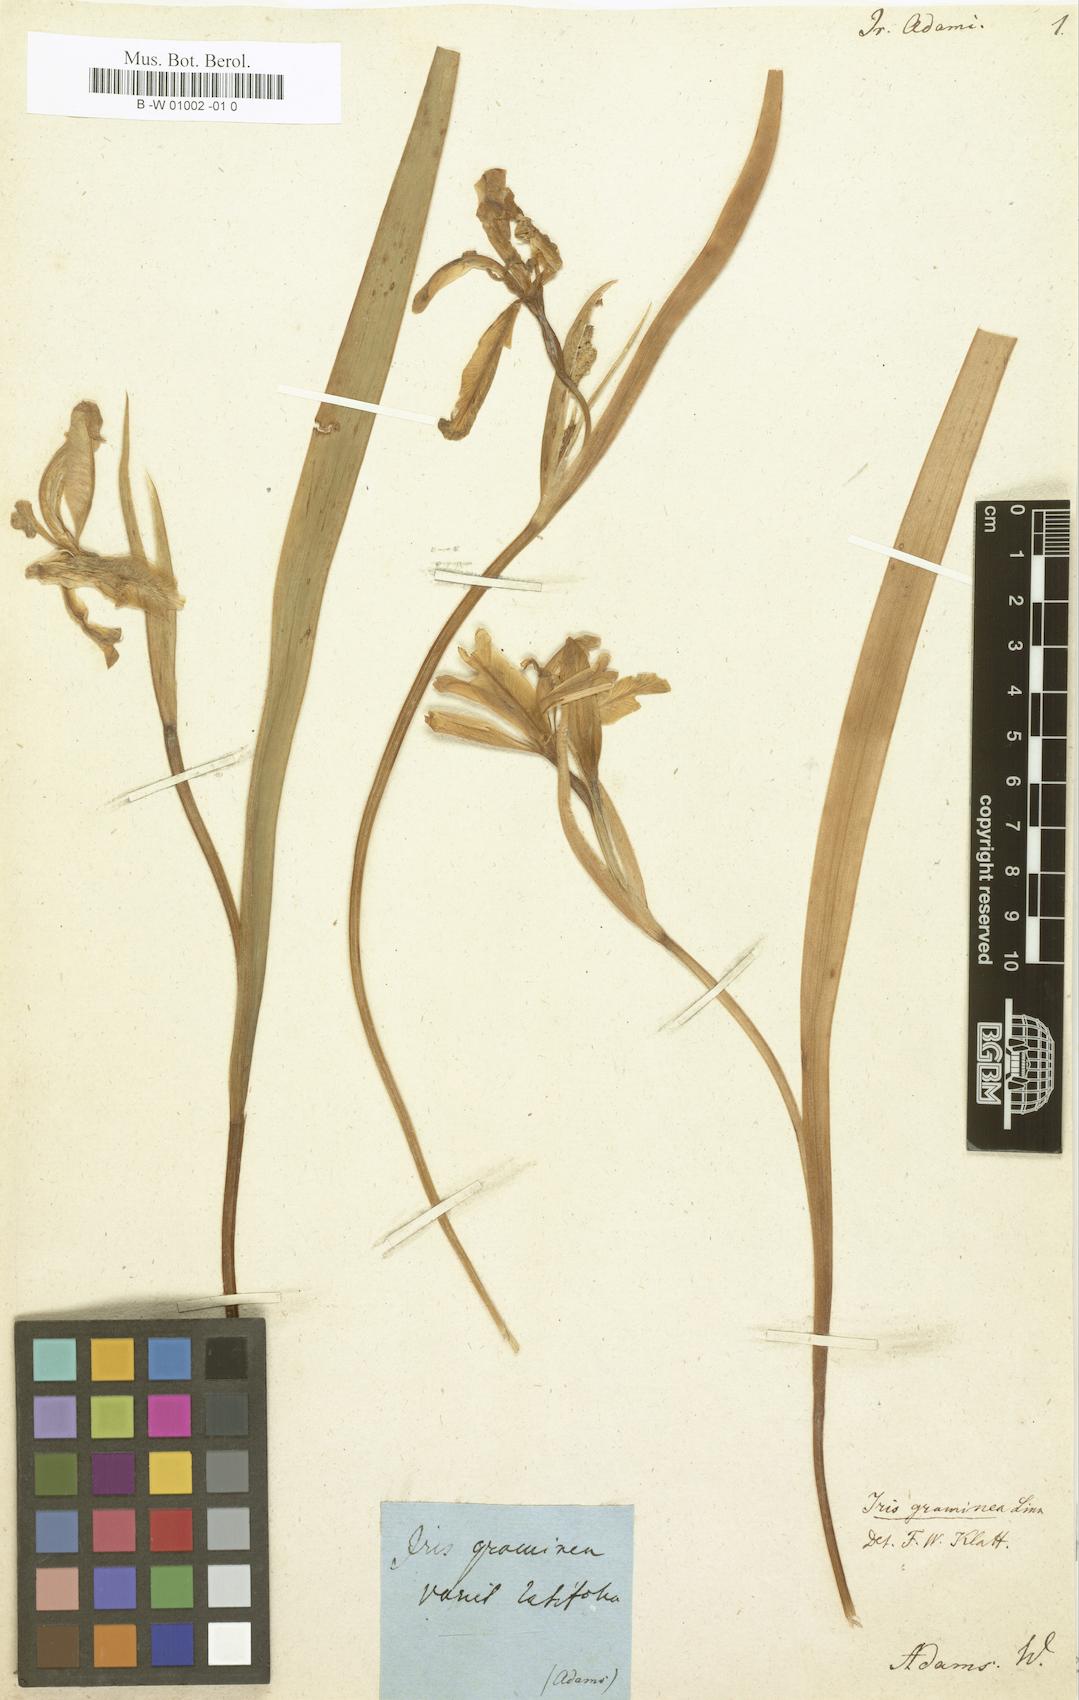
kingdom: Plantae
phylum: Tracheophyta
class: Liliopsida
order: Asparagales
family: Iridaceae
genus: Iris
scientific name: Iris colchica
